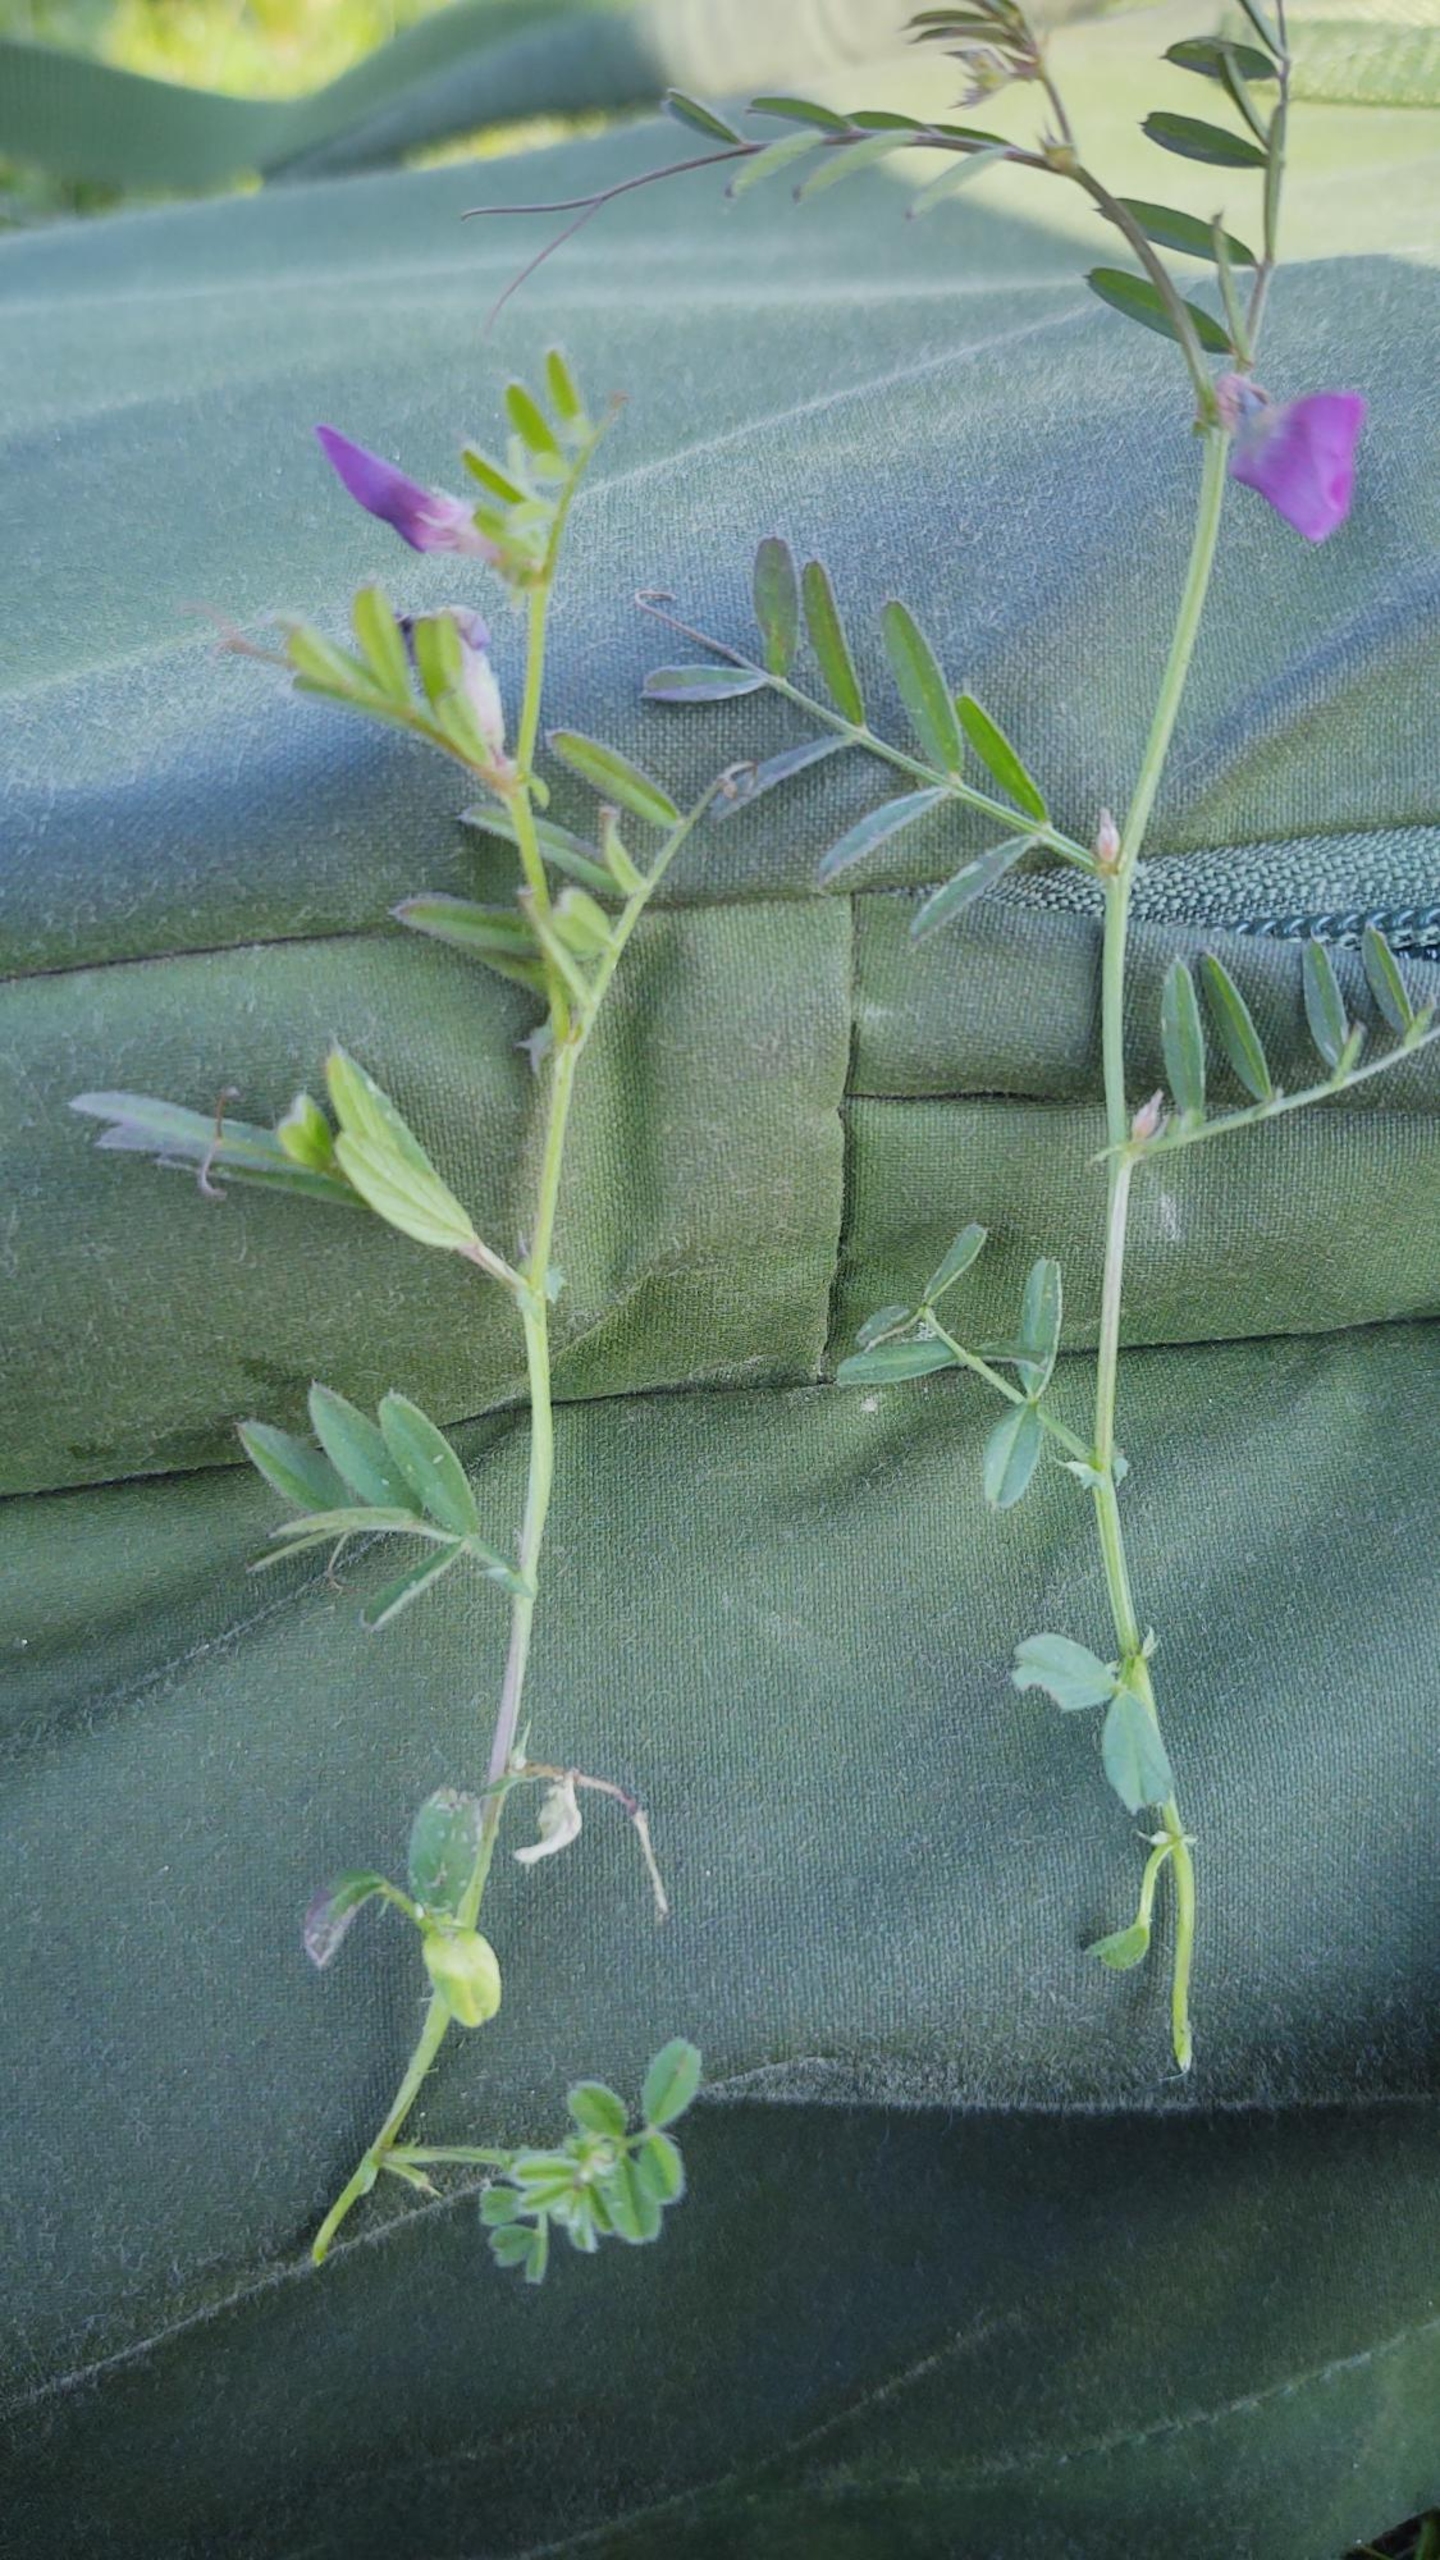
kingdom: Plantae
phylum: Tracheophyta
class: Magnoliopsida
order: Fabales
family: Fabaceae
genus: Vicia
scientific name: Vicia sativa
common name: Smalbladet vikke
